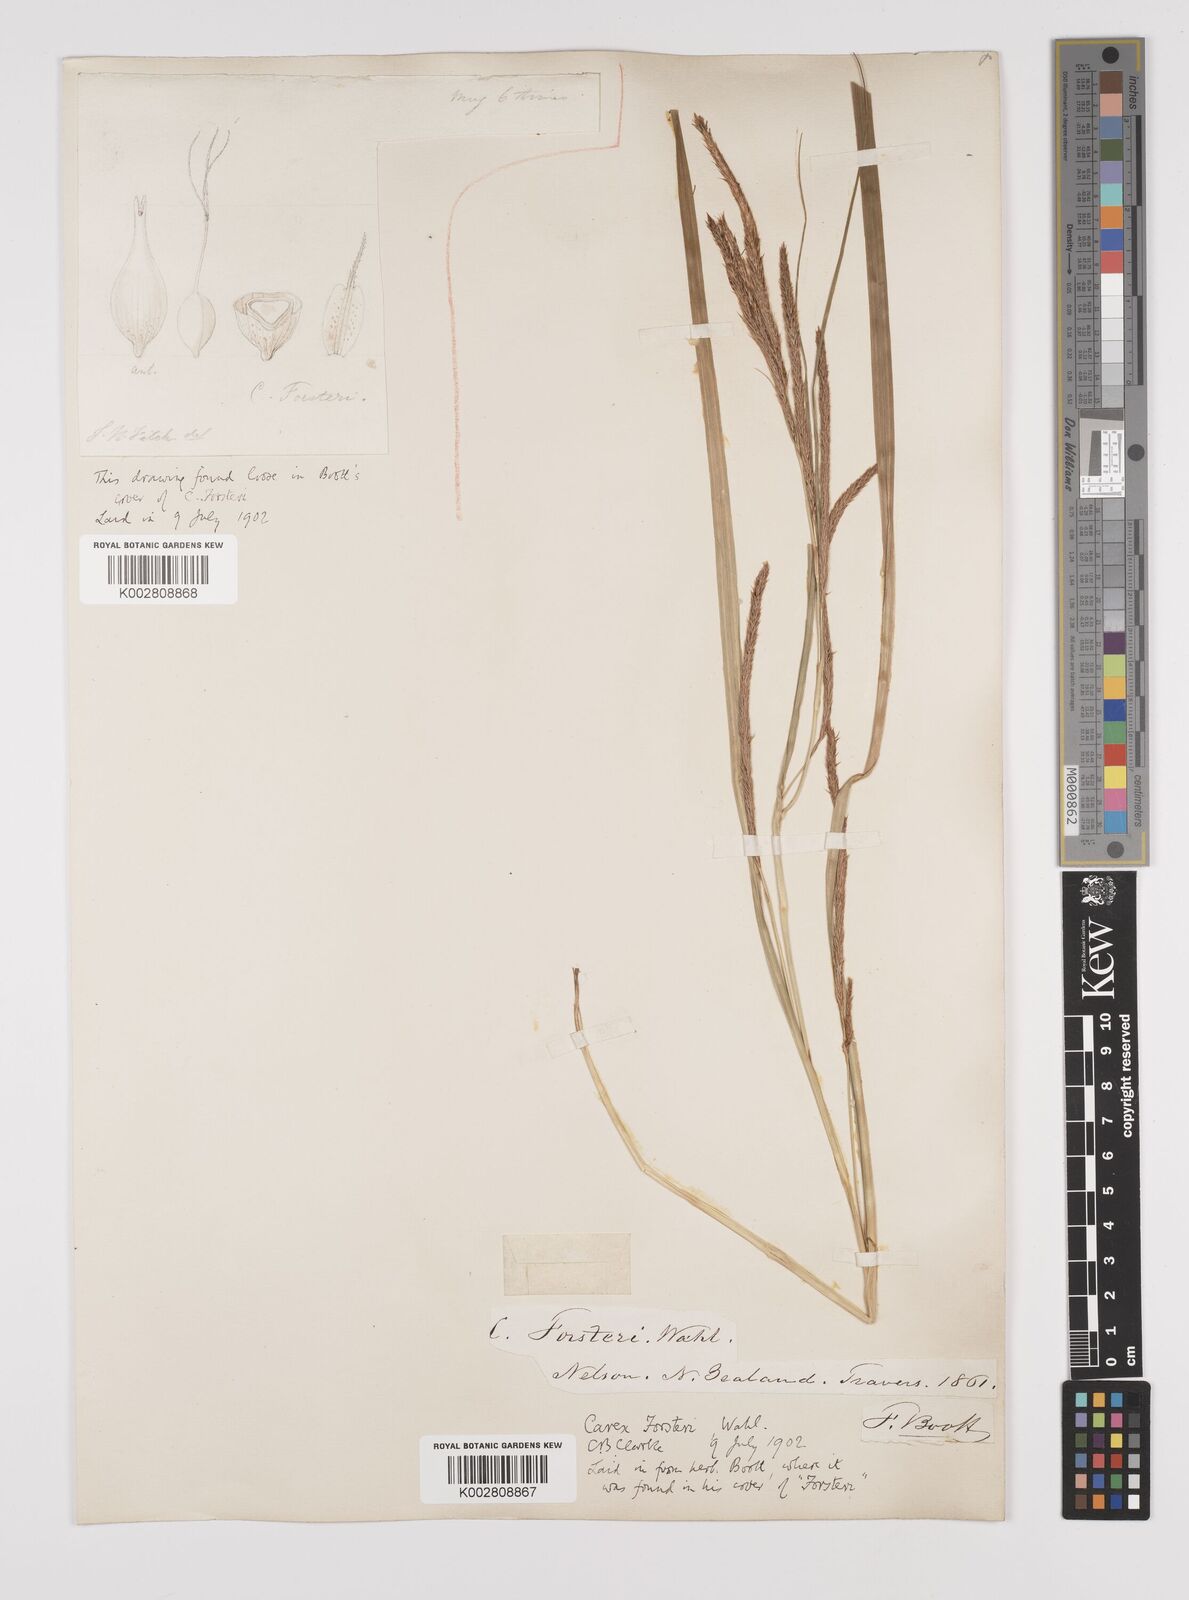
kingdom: Plantae
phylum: Tracheophyta
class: Liliopsida
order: Poales
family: Cyperaceae
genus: Carex
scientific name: Carex forsteri
